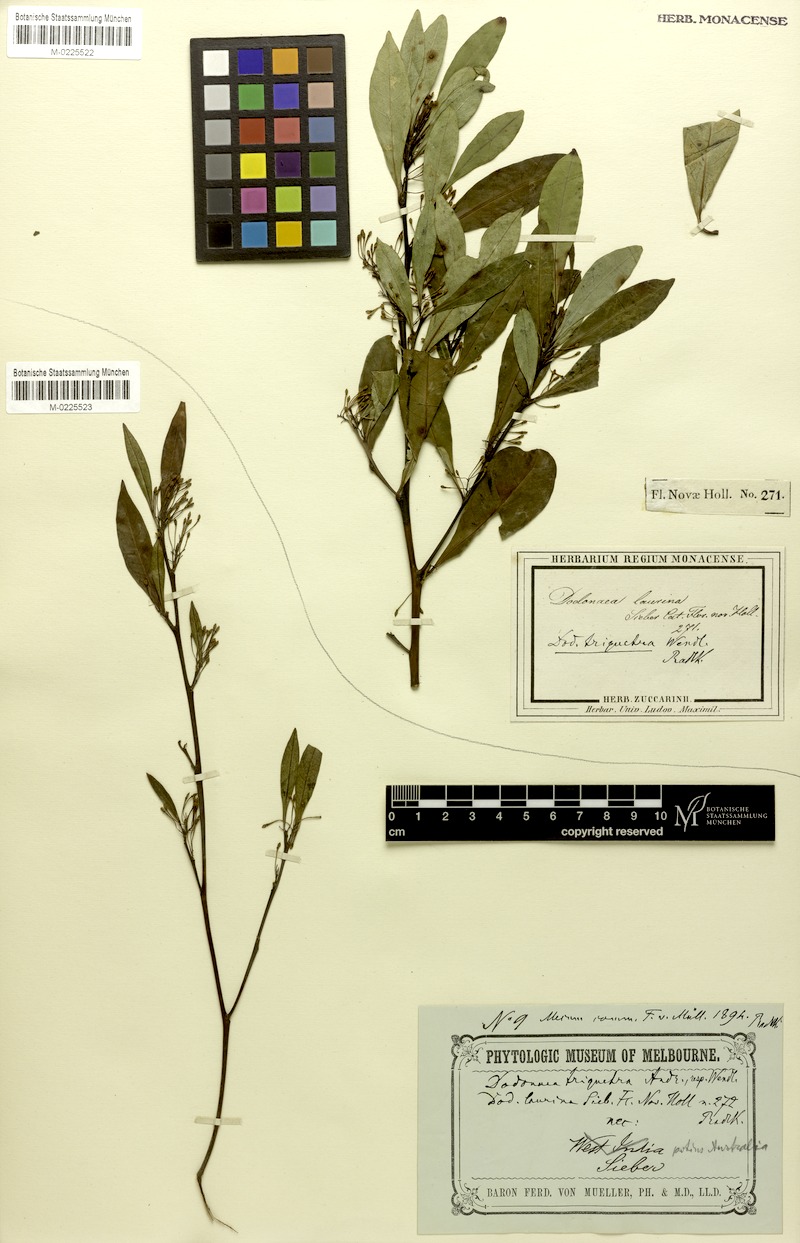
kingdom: Plantae
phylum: Tracheophyta
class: Magnoliopsida
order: Sapindales
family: Sapindaceae
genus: Dodonaea
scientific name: Dodonaea triquetra
